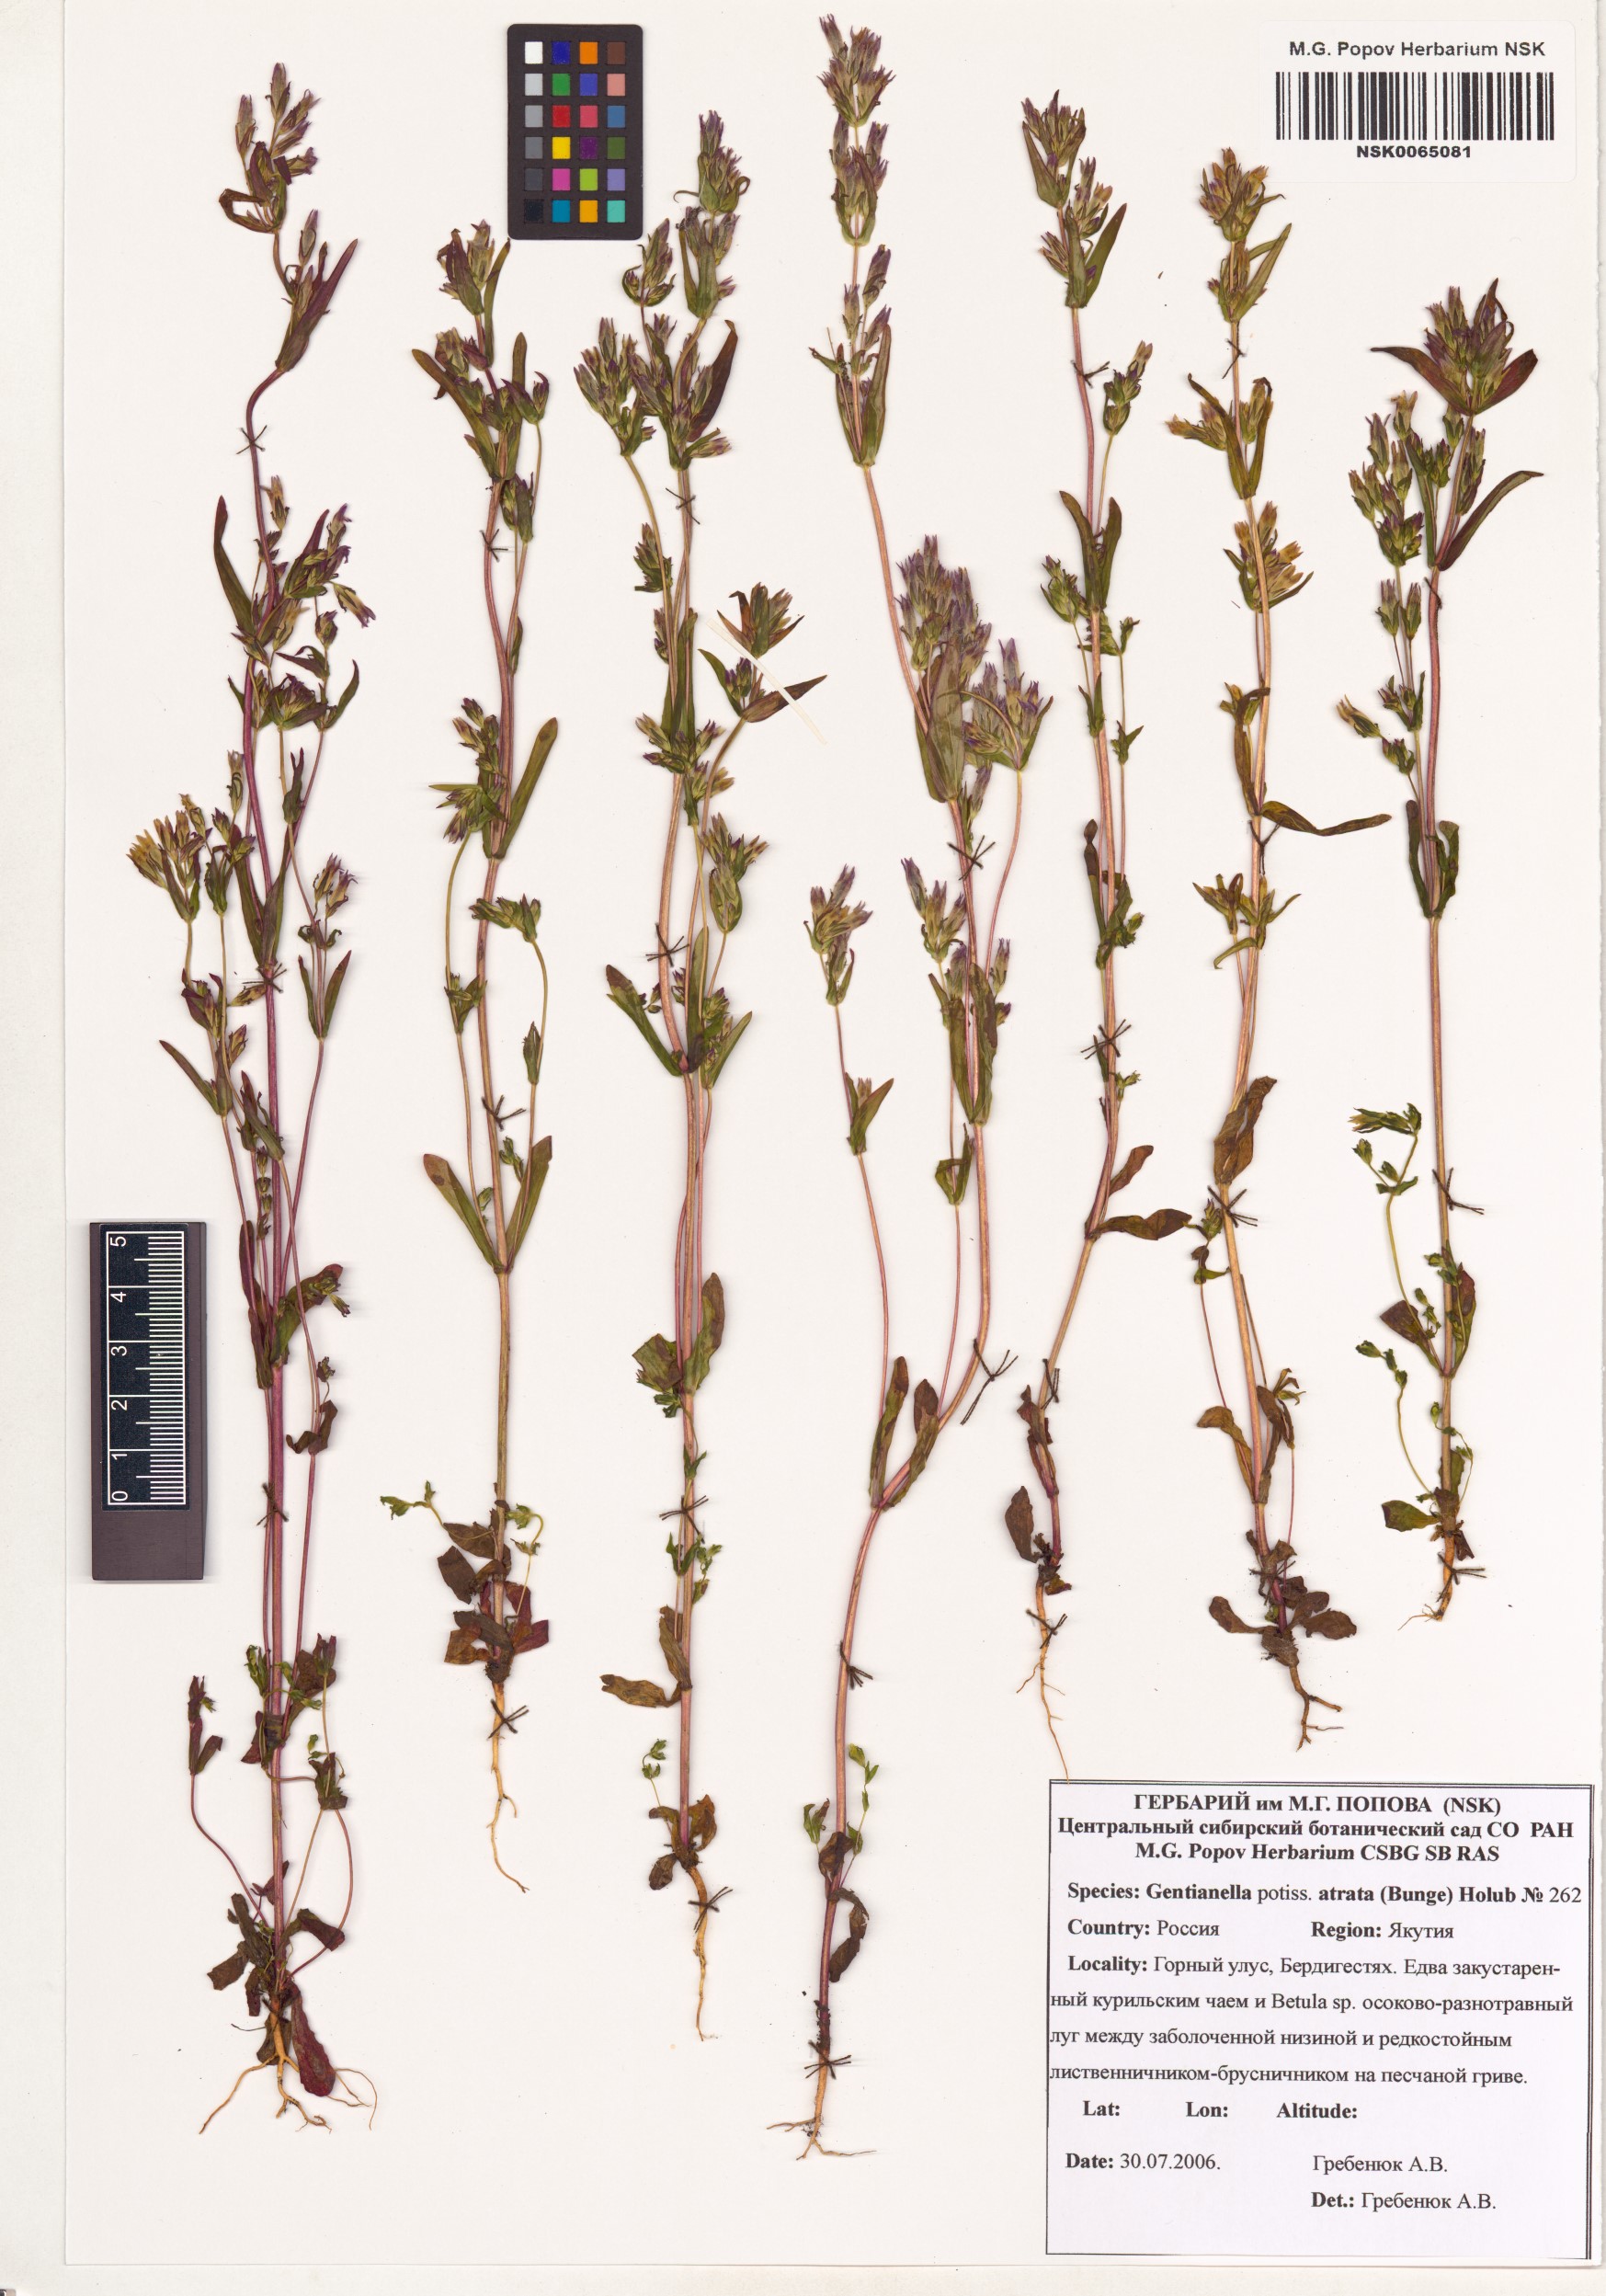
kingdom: Plantae
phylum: Tracheophyta
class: Magnoliopsida
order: Gentianales
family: Gentianaceae
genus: Gentianella
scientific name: Gentianella atrata
